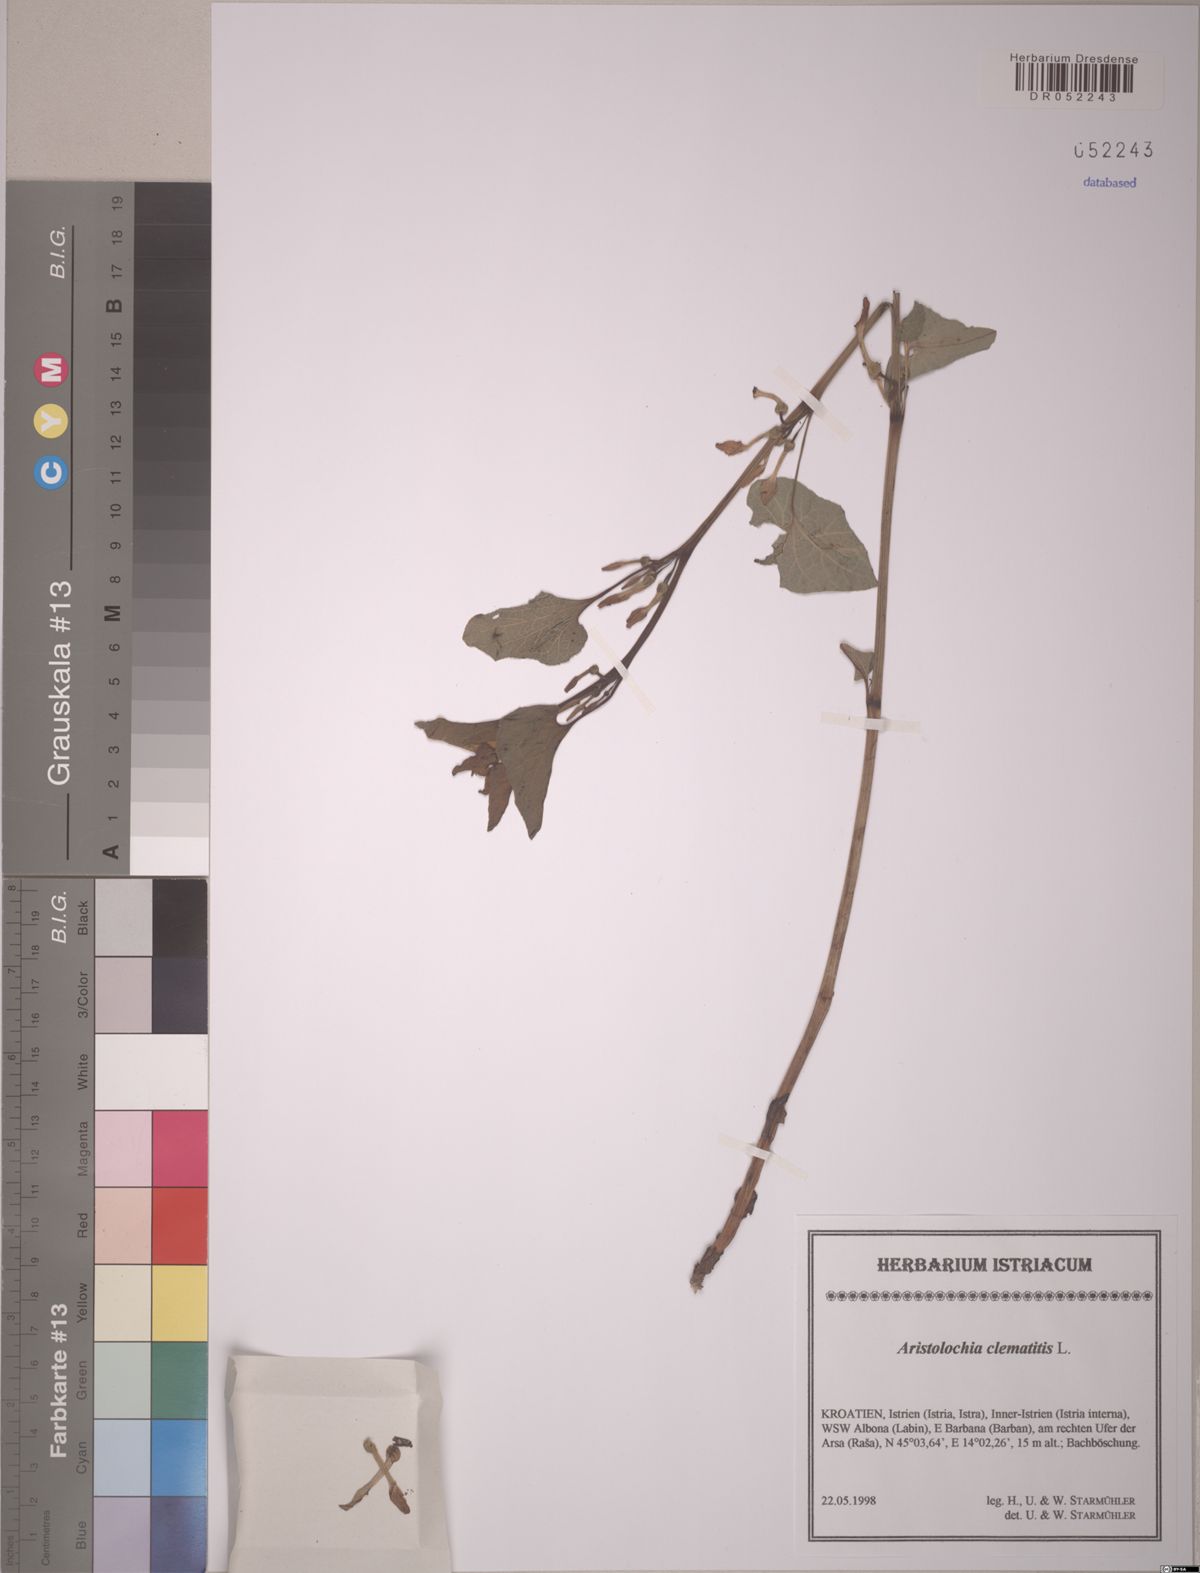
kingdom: Plantae
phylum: Tracheophyta
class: Magnoliopsida
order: Piperales
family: Aristolochiaceae
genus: Aristolochia
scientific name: Aristolochia clematitis
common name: Birthwort
